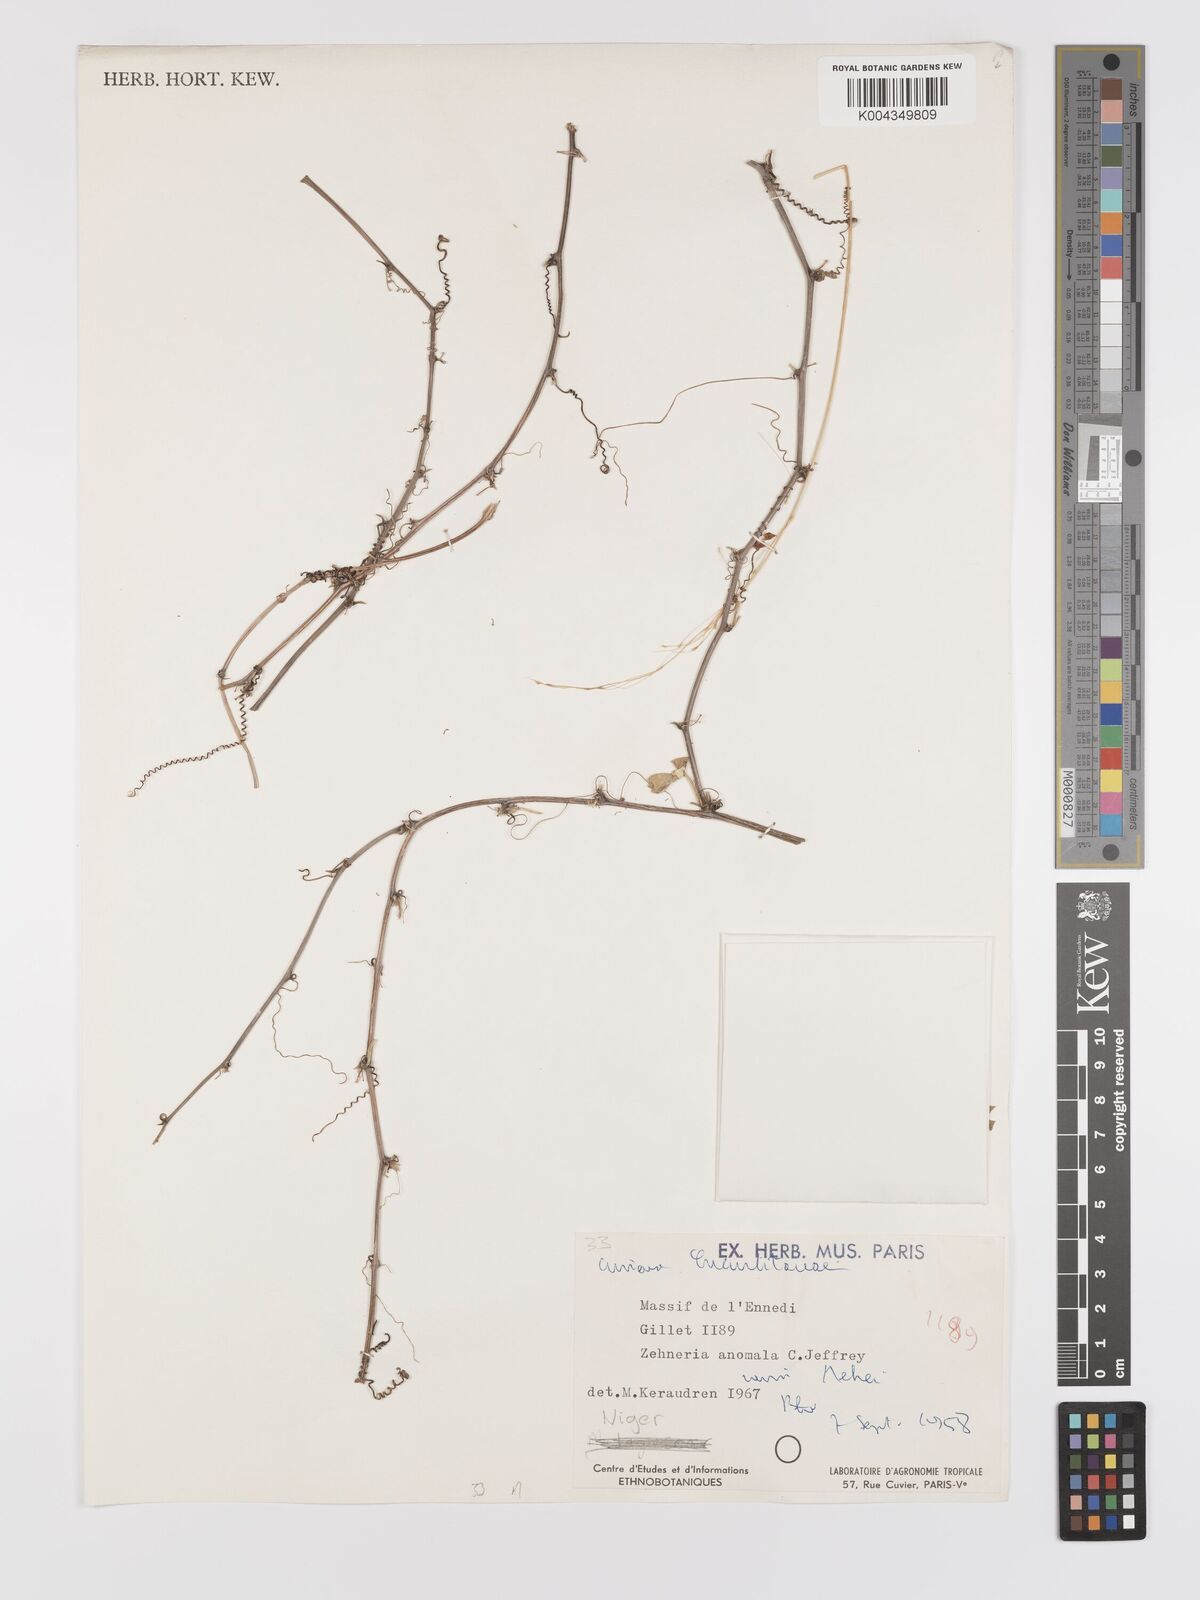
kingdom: Plantae
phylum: Tracheophyta
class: Magnoliopsida
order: Cucurbitales
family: Cucurbitaceae
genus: Zehneria
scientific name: Zehneria anomala
